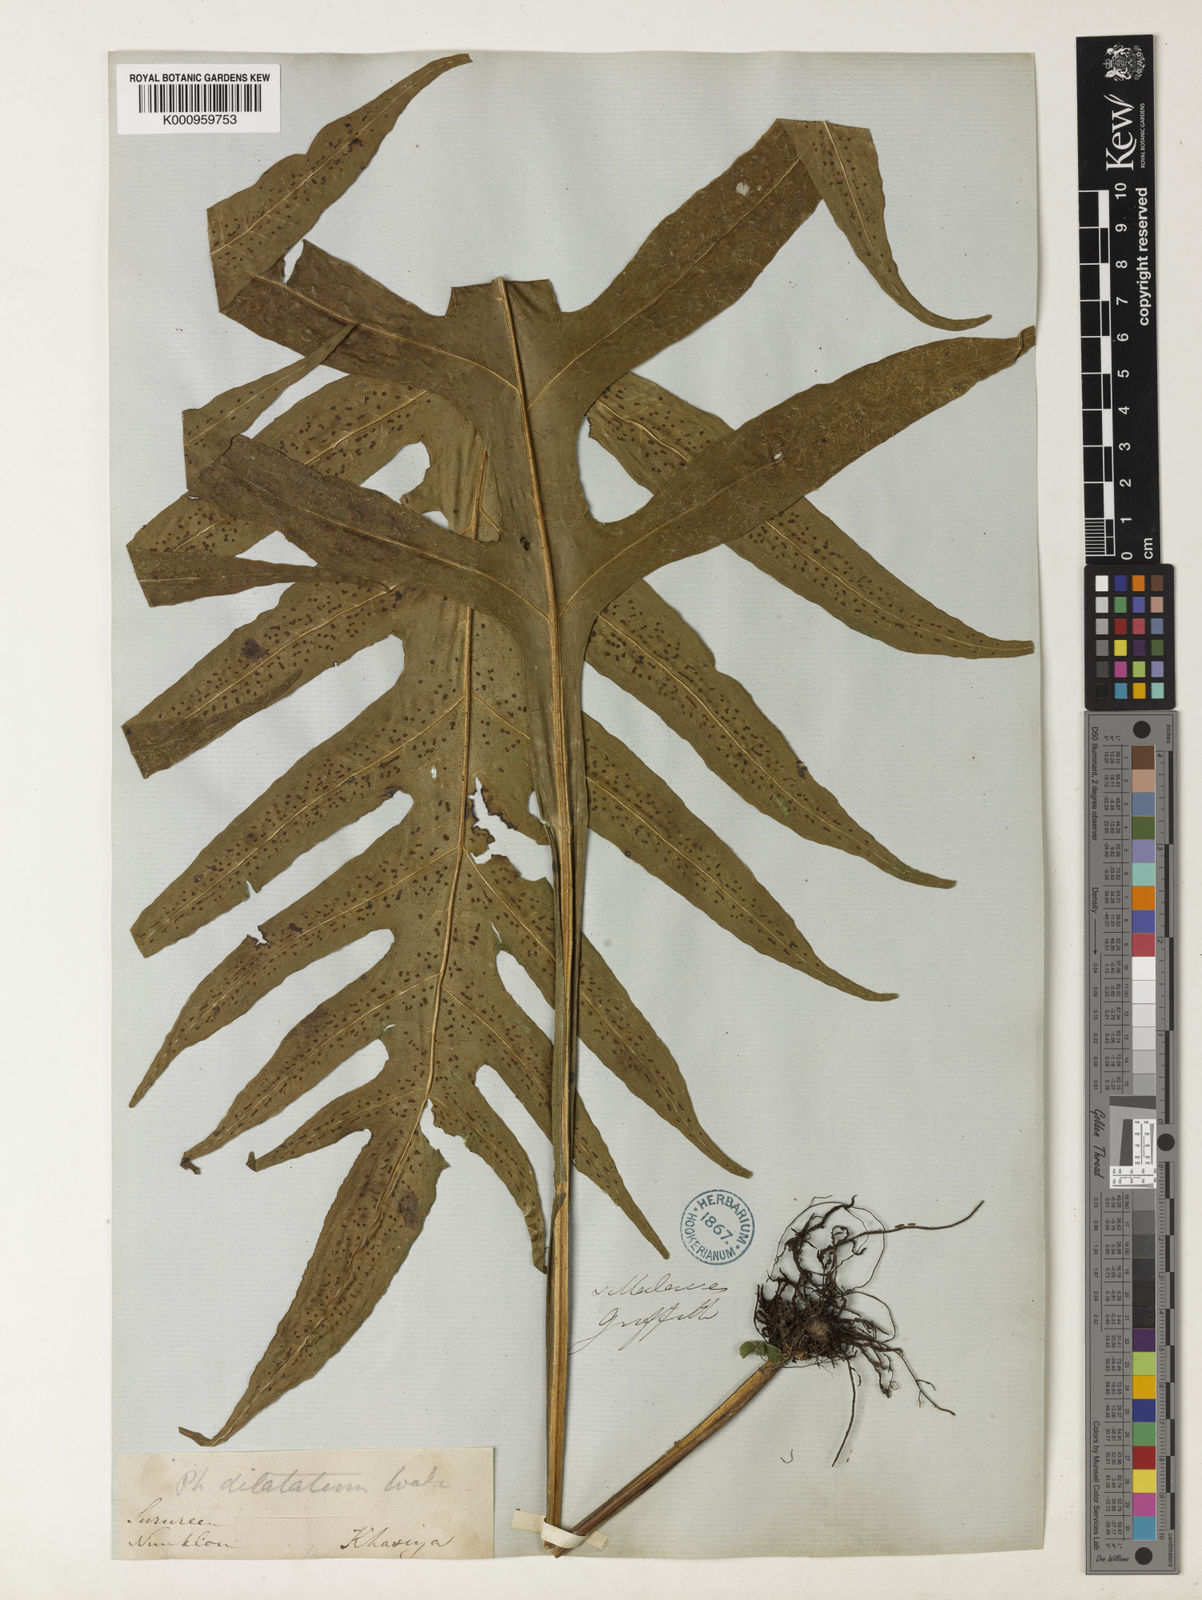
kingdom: Plantae
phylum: Tracheophyta
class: Polypodiopsida
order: Polypodiales
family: Polypodiaceae
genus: Leptochilus
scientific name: Leptochilus insignis
